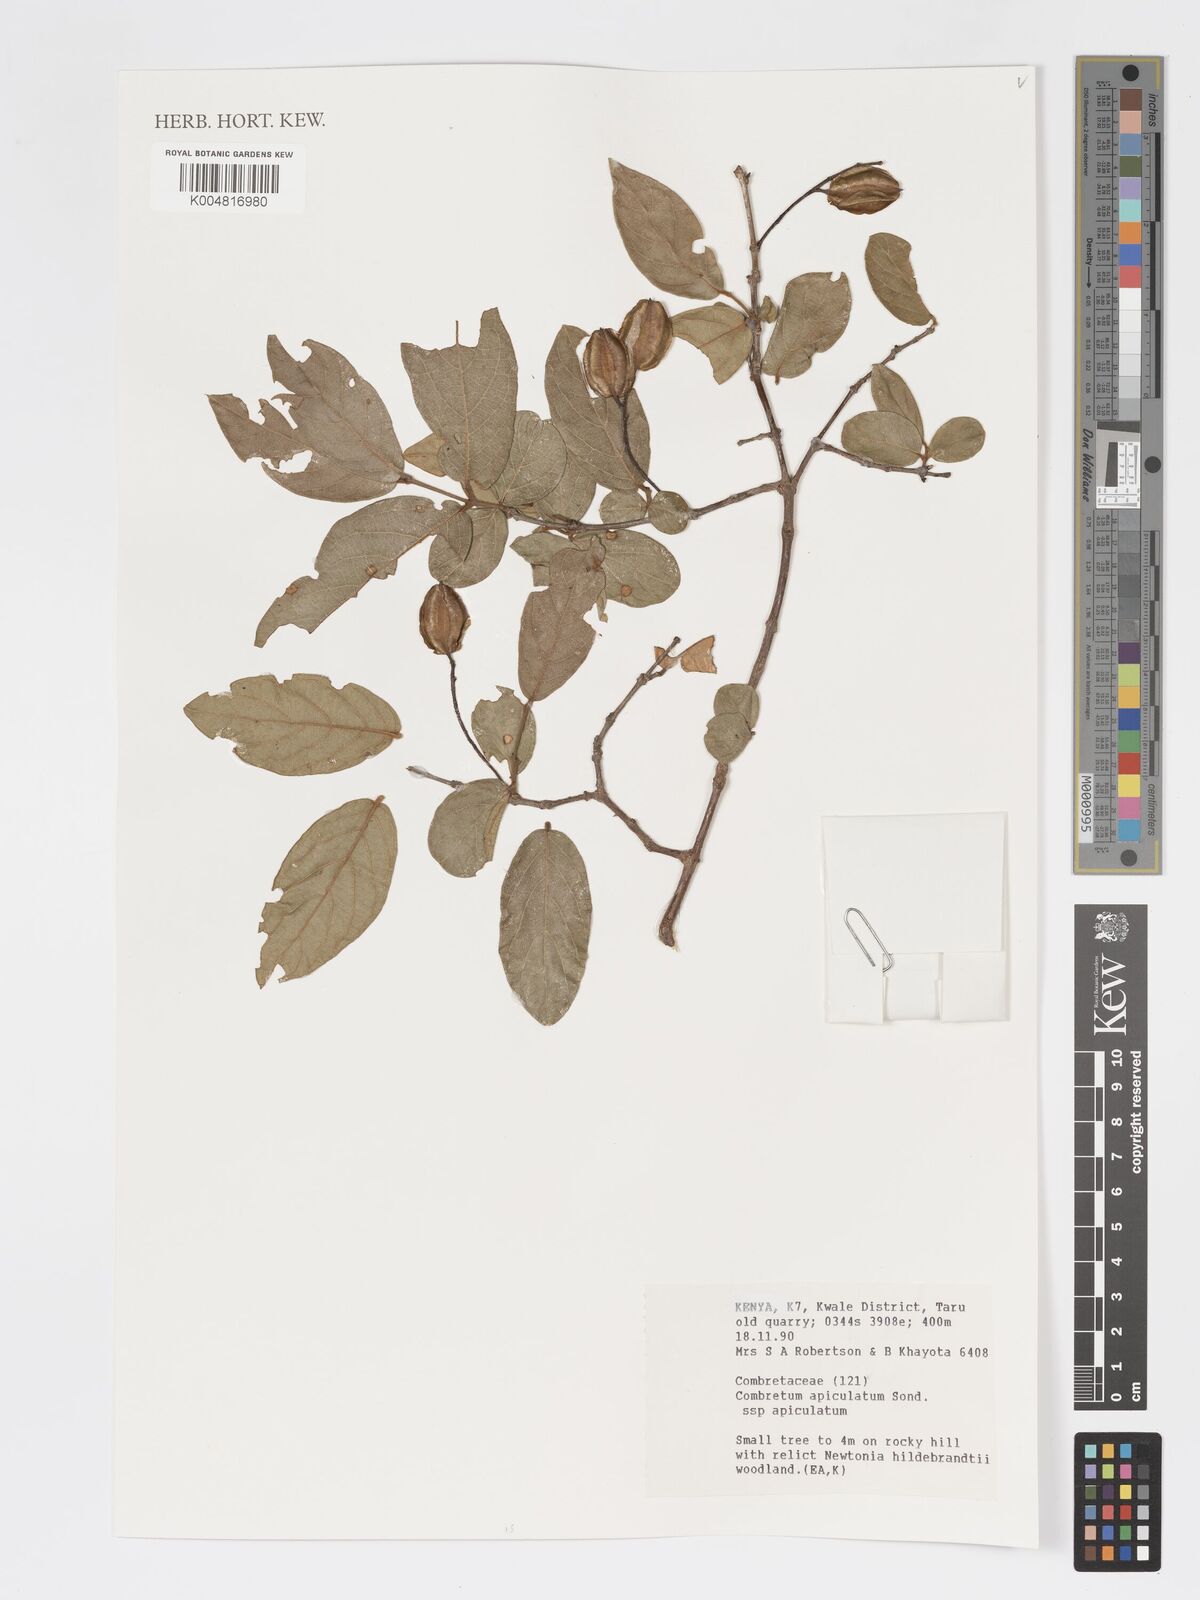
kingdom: Plantae
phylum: Tracheophyta
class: Magnoliopsida
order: Myrtales
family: Combretaceae
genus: Combretum
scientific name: Combretum apiculatum
